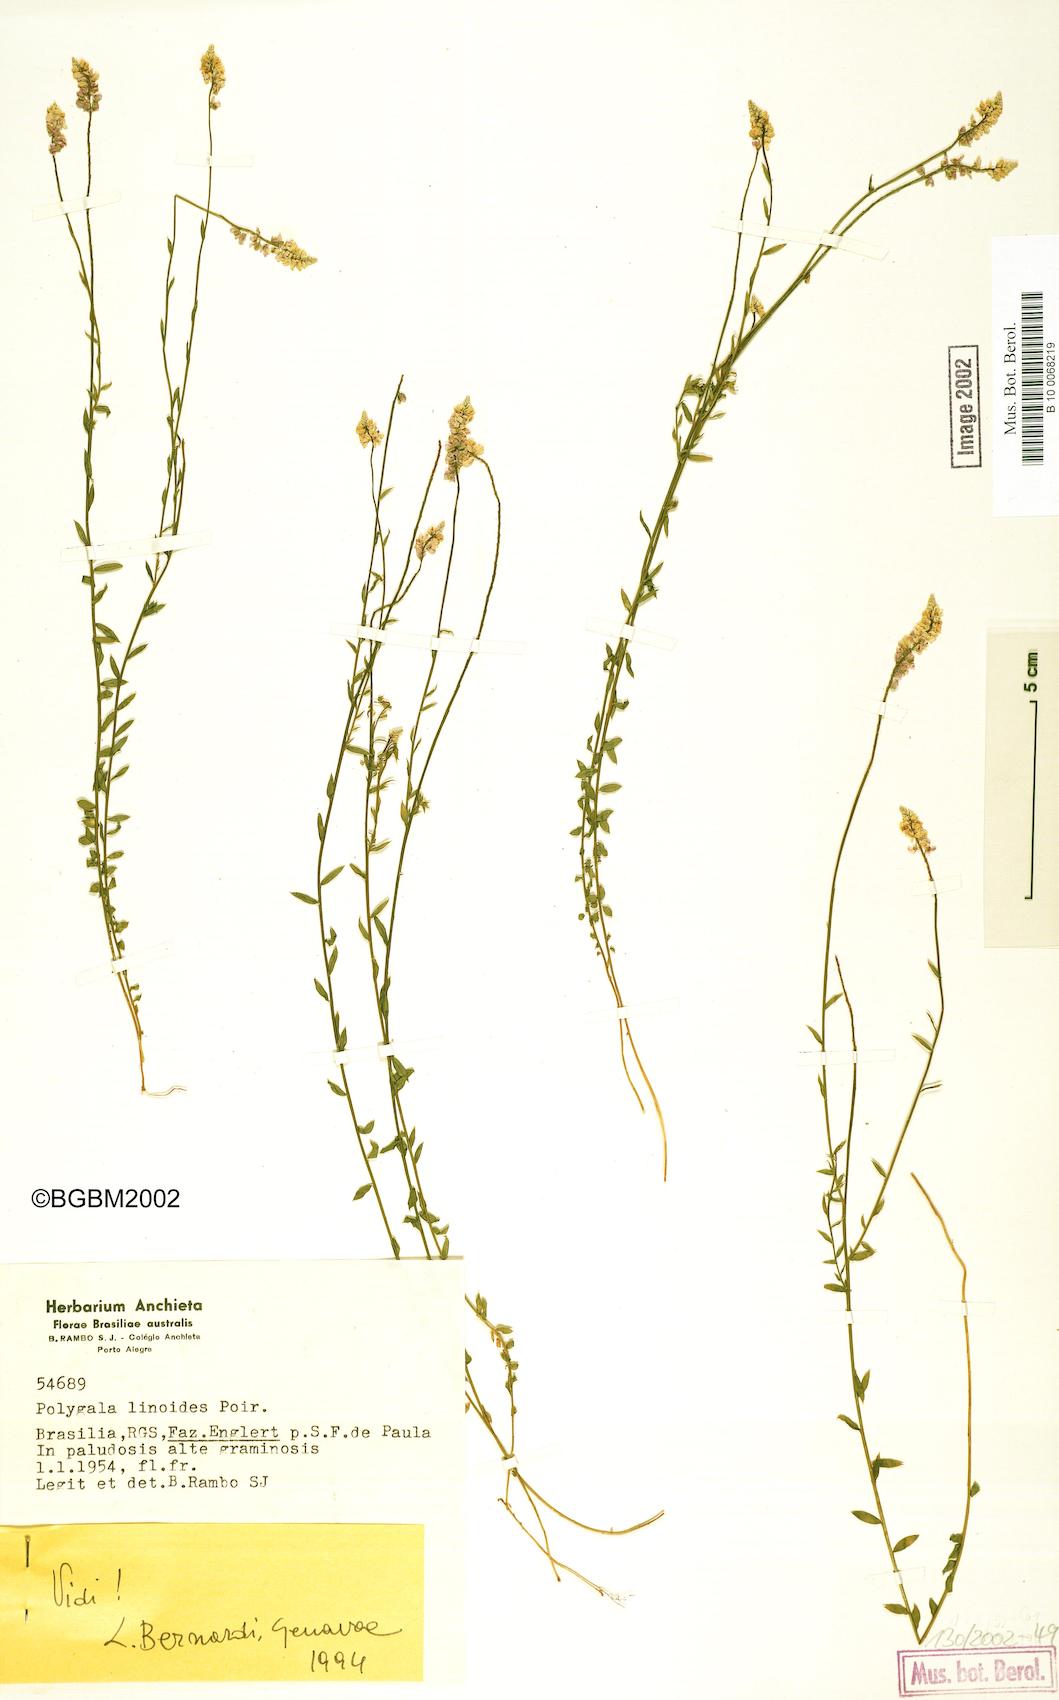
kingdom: Plantae
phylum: Tracheophyta
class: Magnoliopsida
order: Fabales
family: Polygalaceae
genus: Polygala
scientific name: Polygala linoides
